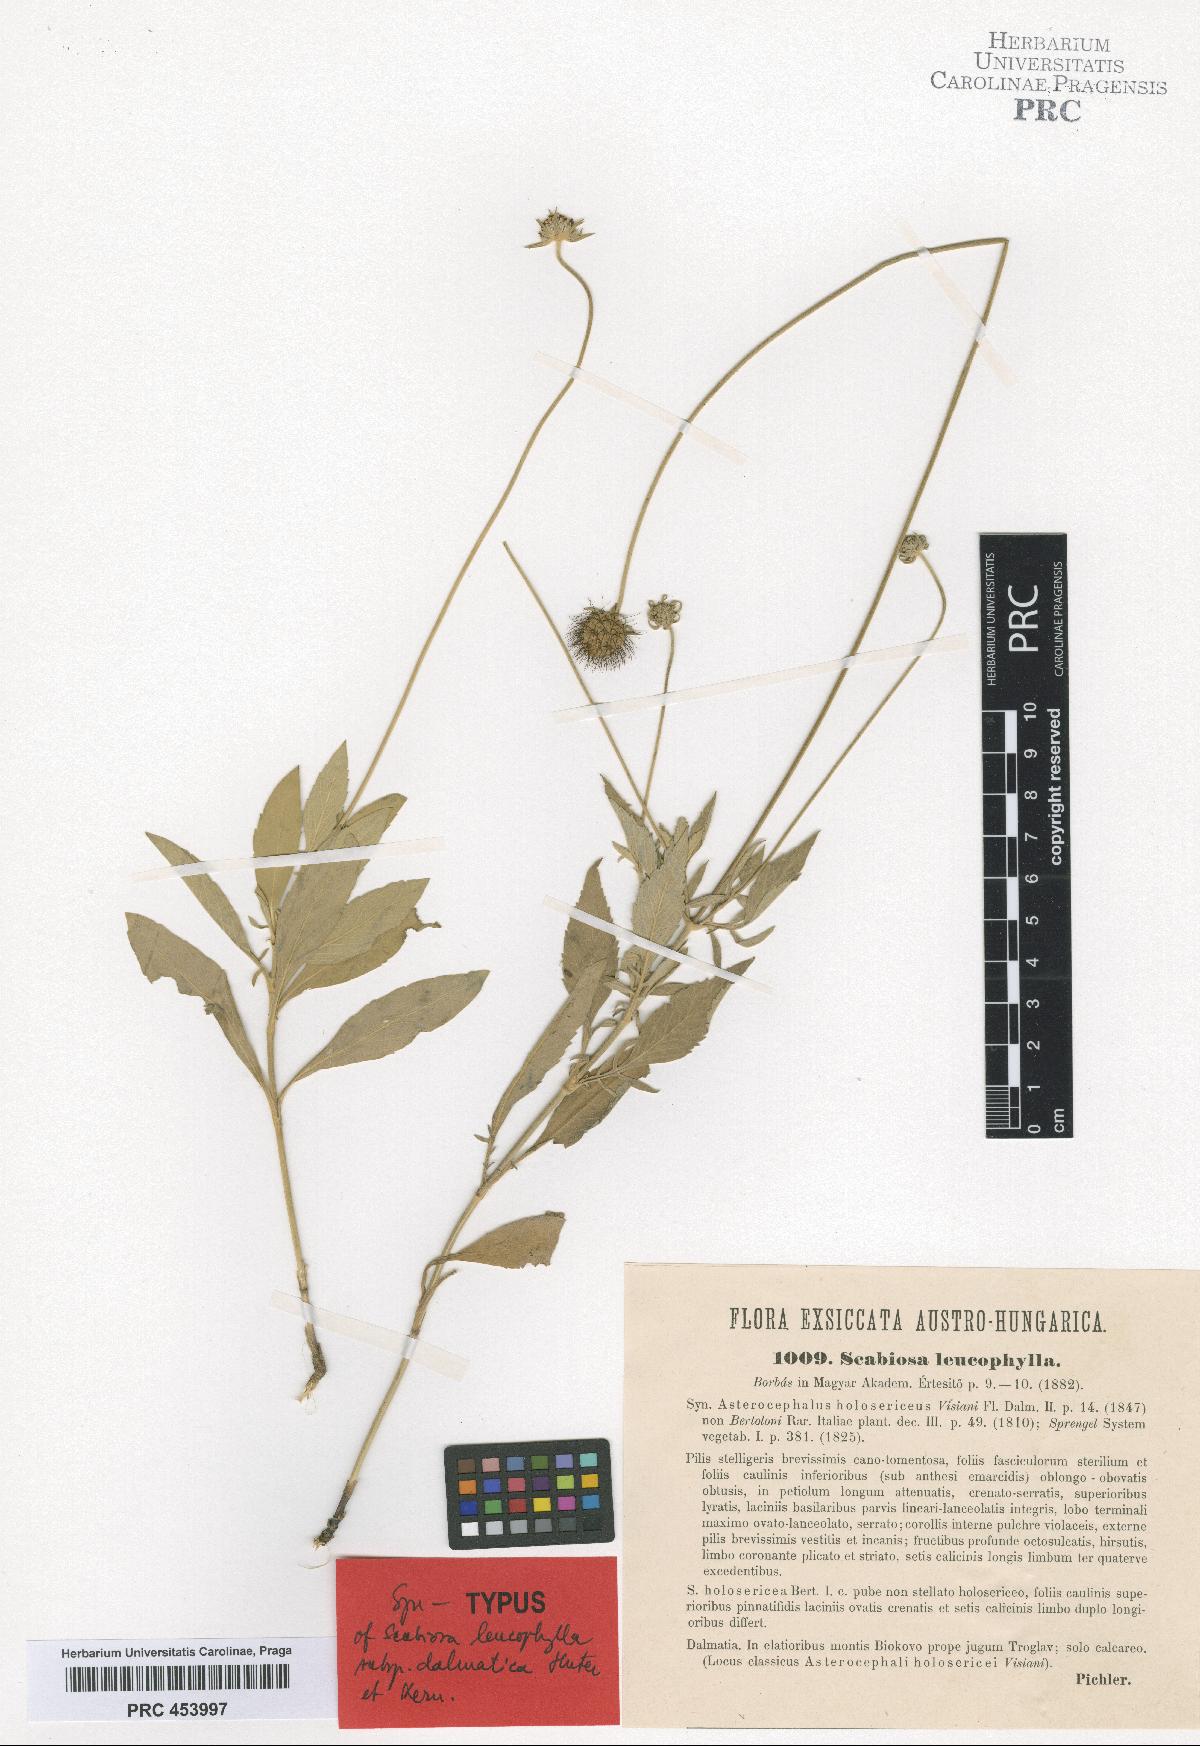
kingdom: Plantae
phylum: Tracheophyta
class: Magnoliopsida
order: Dipsacales
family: Caprifoliaceae
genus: Scabiosa
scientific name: Scabiosa cinerea
